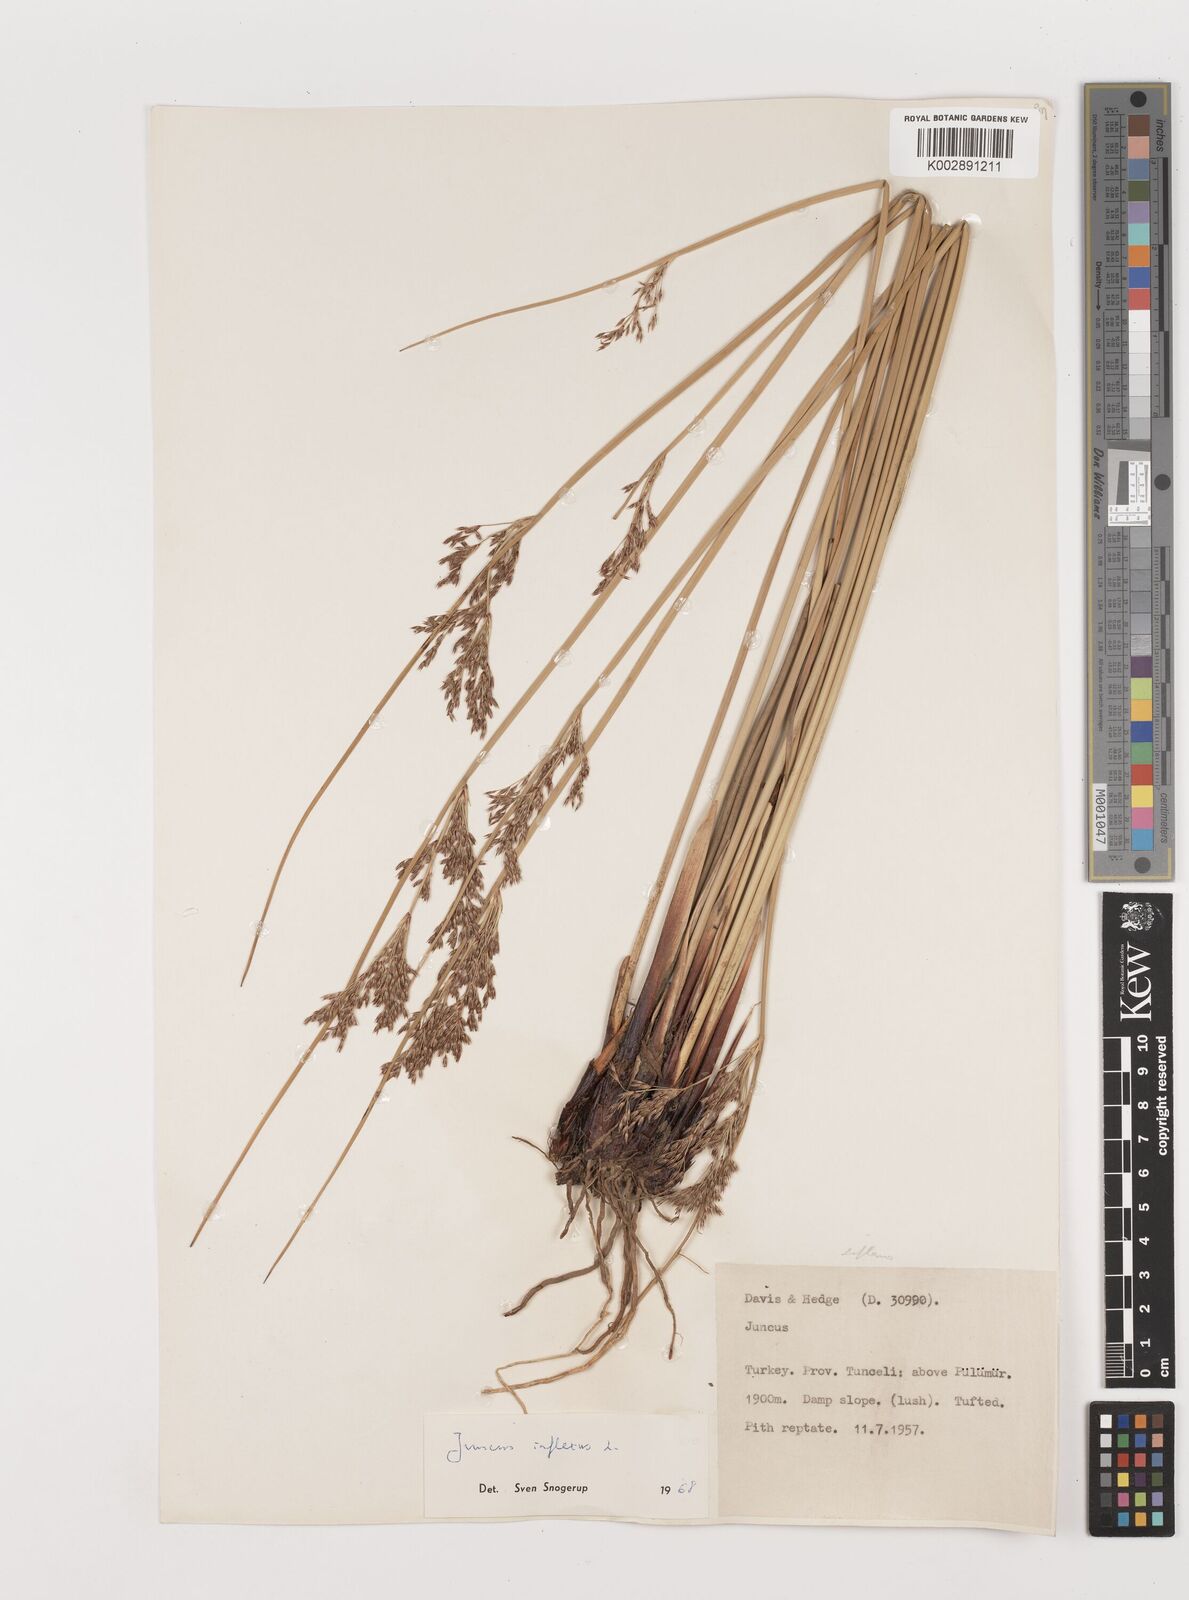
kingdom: Plantae
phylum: Tracheophyta
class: Liliopsida
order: Poales
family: Juncaceae
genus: Juncus
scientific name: Juncus inflexus
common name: Hard rush
